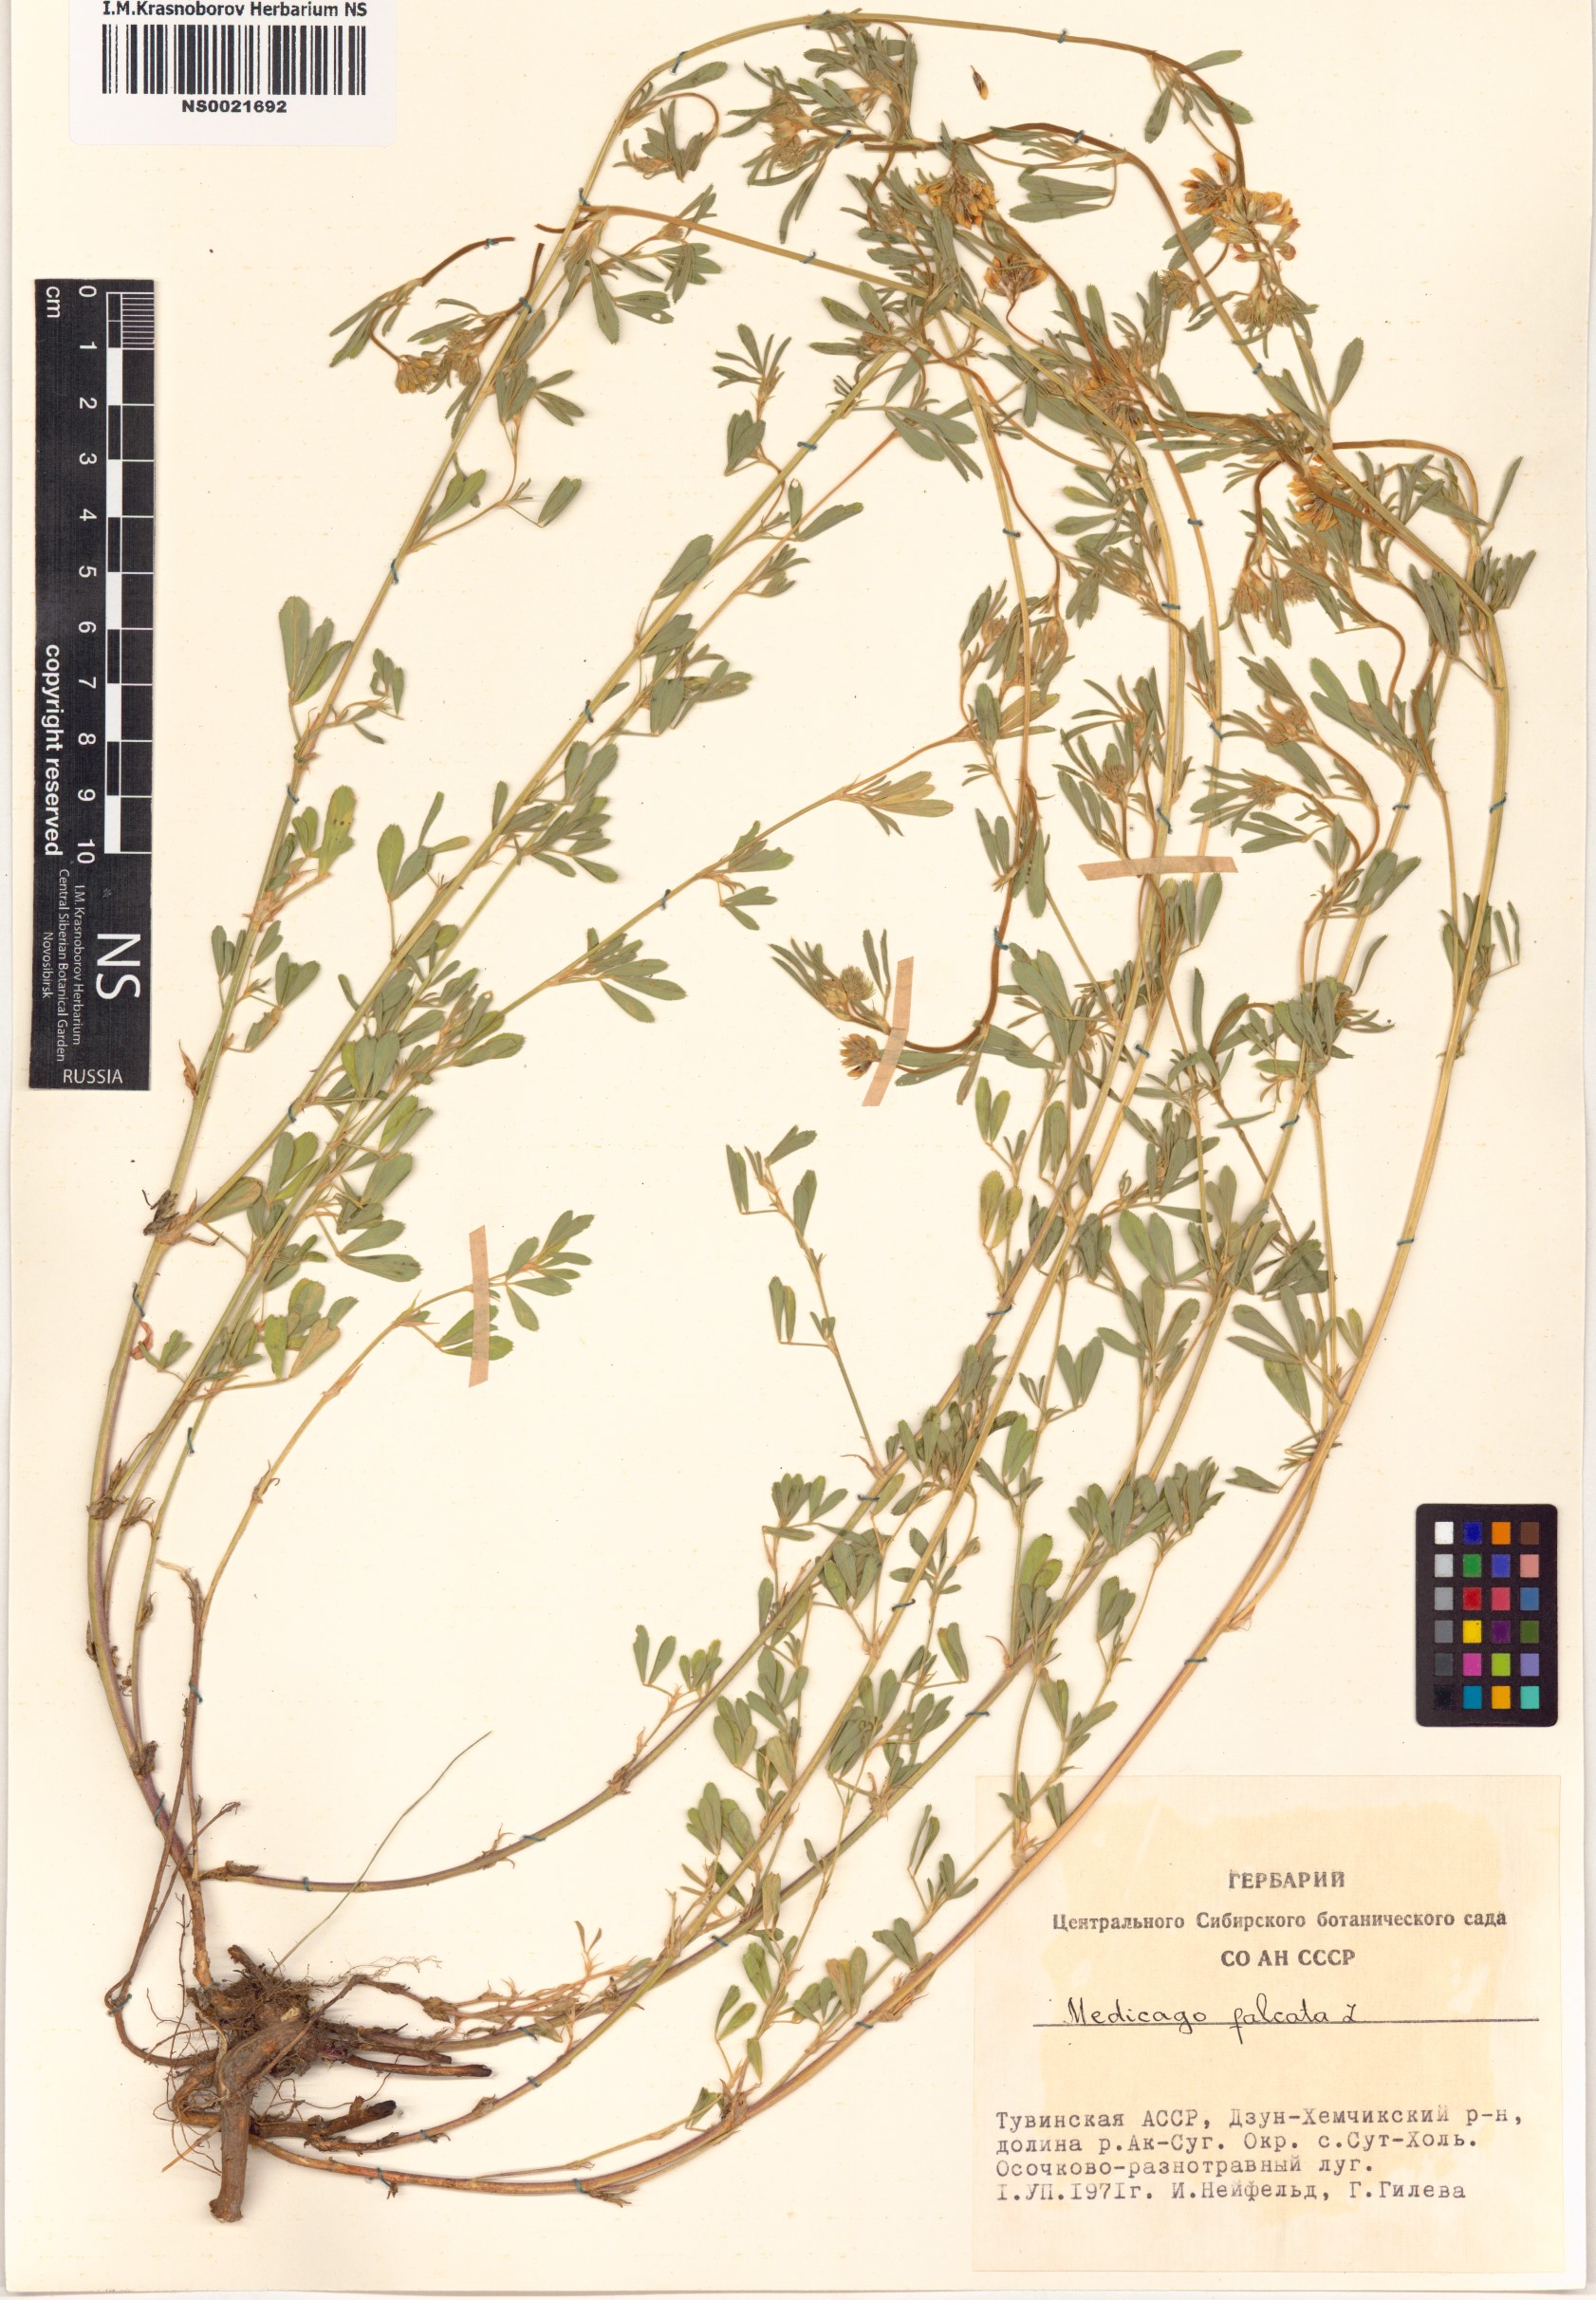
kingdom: Plantae
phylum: Tracheophyta
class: Magnoliopsida
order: Fabales
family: Fabaceae
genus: Medicago
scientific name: Medicago falcata
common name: Sickle medick
